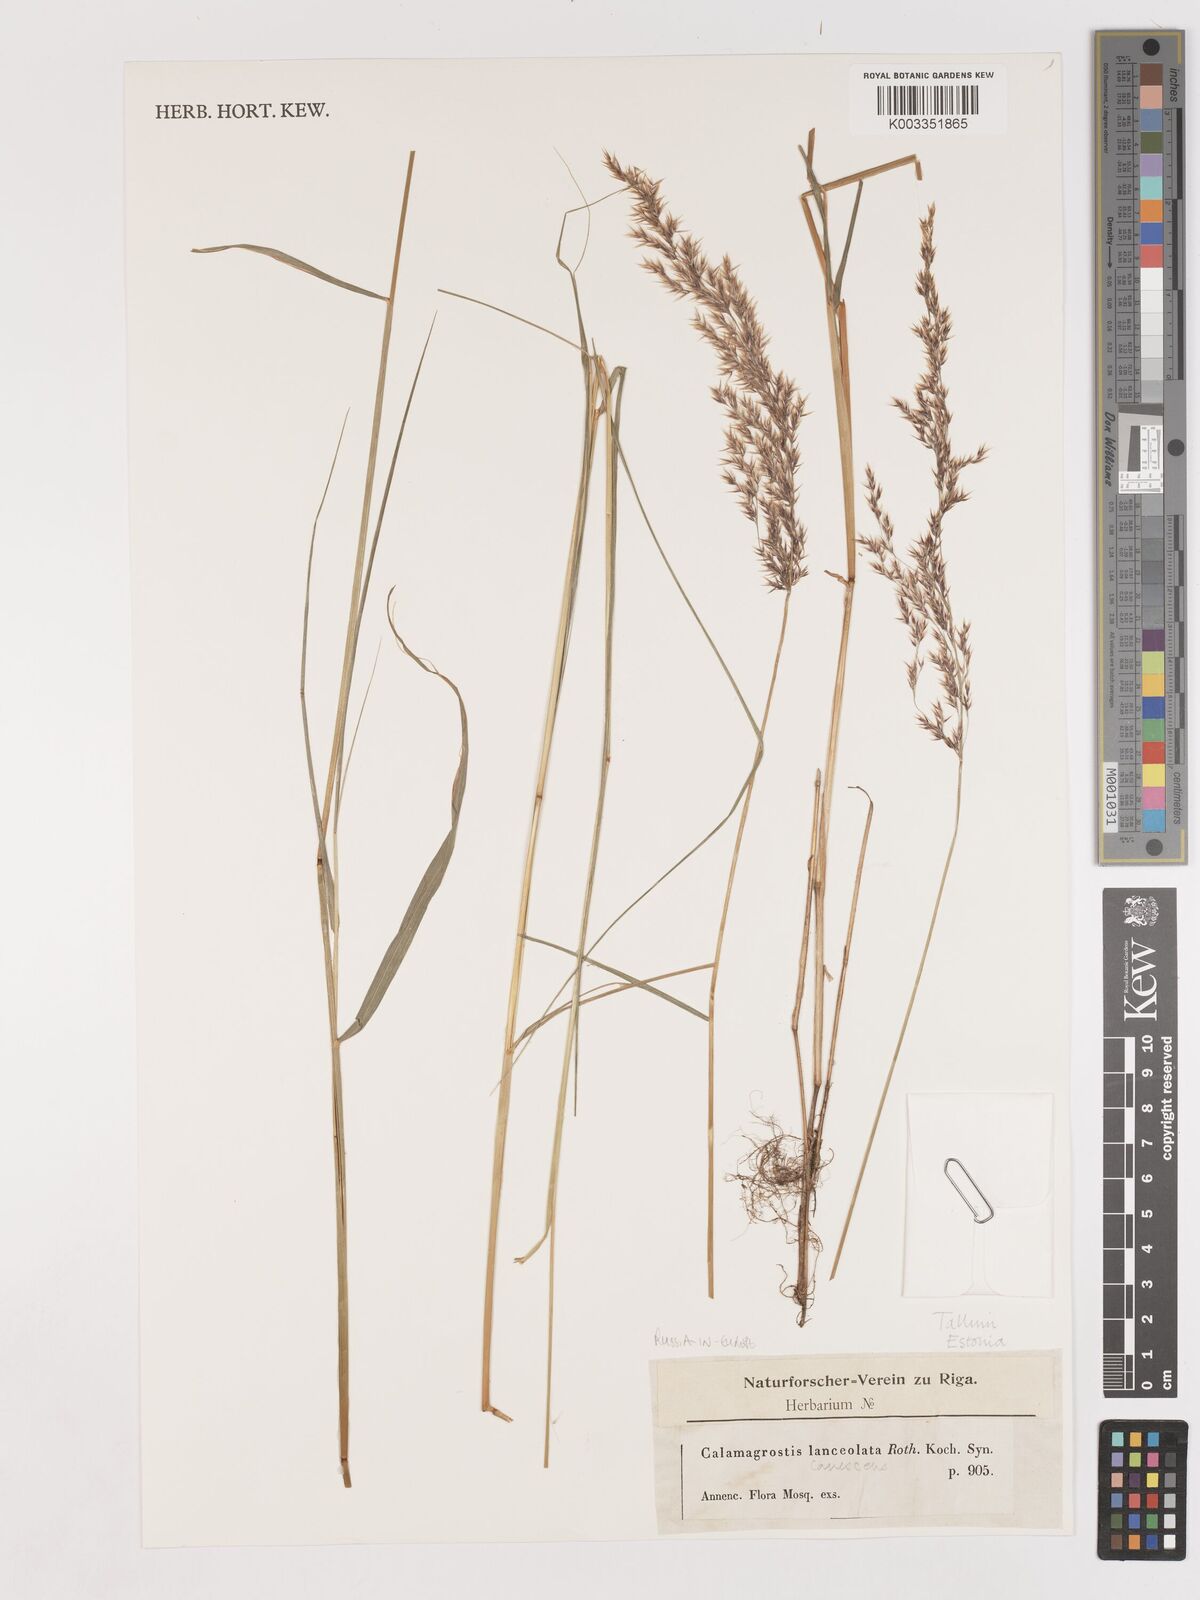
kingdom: Plantae
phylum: Tracheophyta
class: Liliopsida
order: Poales
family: Poaceae
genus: Calamagrostis
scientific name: Calamagrostis canescens
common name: Purple small-reed
